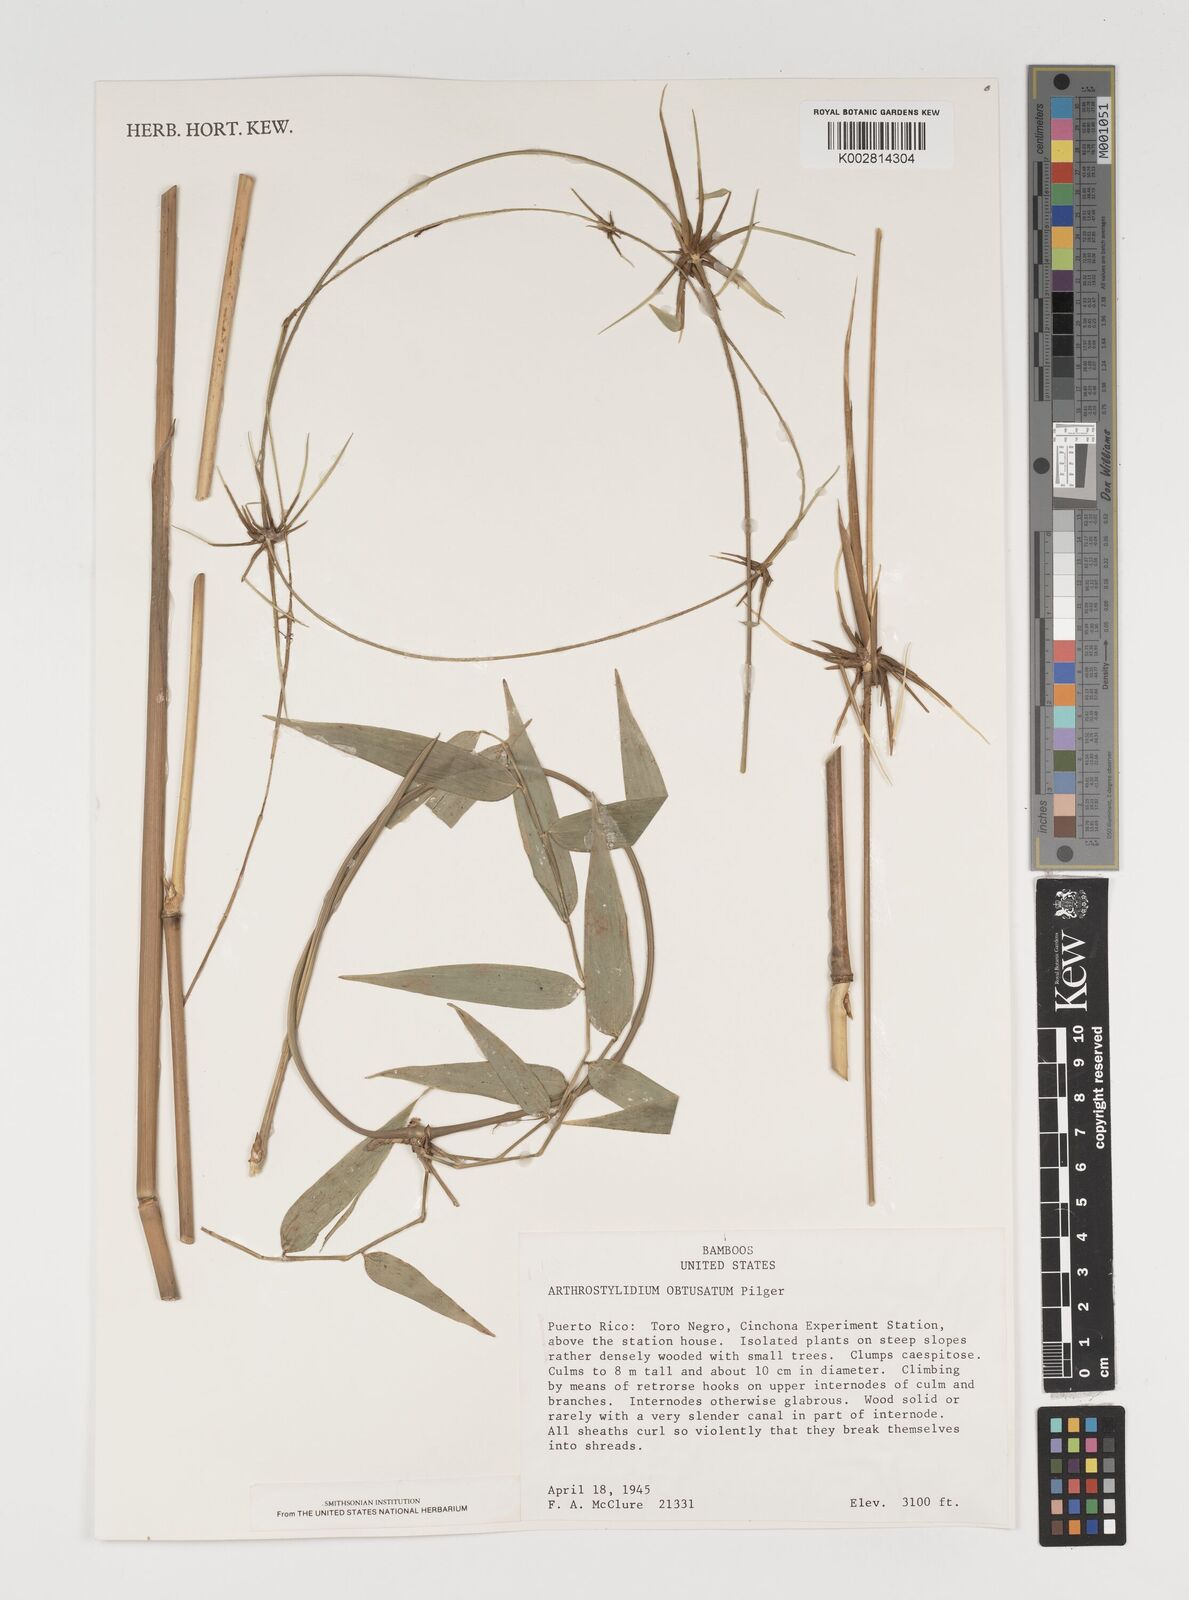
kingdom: Plantae
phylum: Tracheophyta
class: Liliopsida
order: Poales
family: Poaceae
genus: Arthrostylidium
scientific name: Arthrostylidium obtusatum
